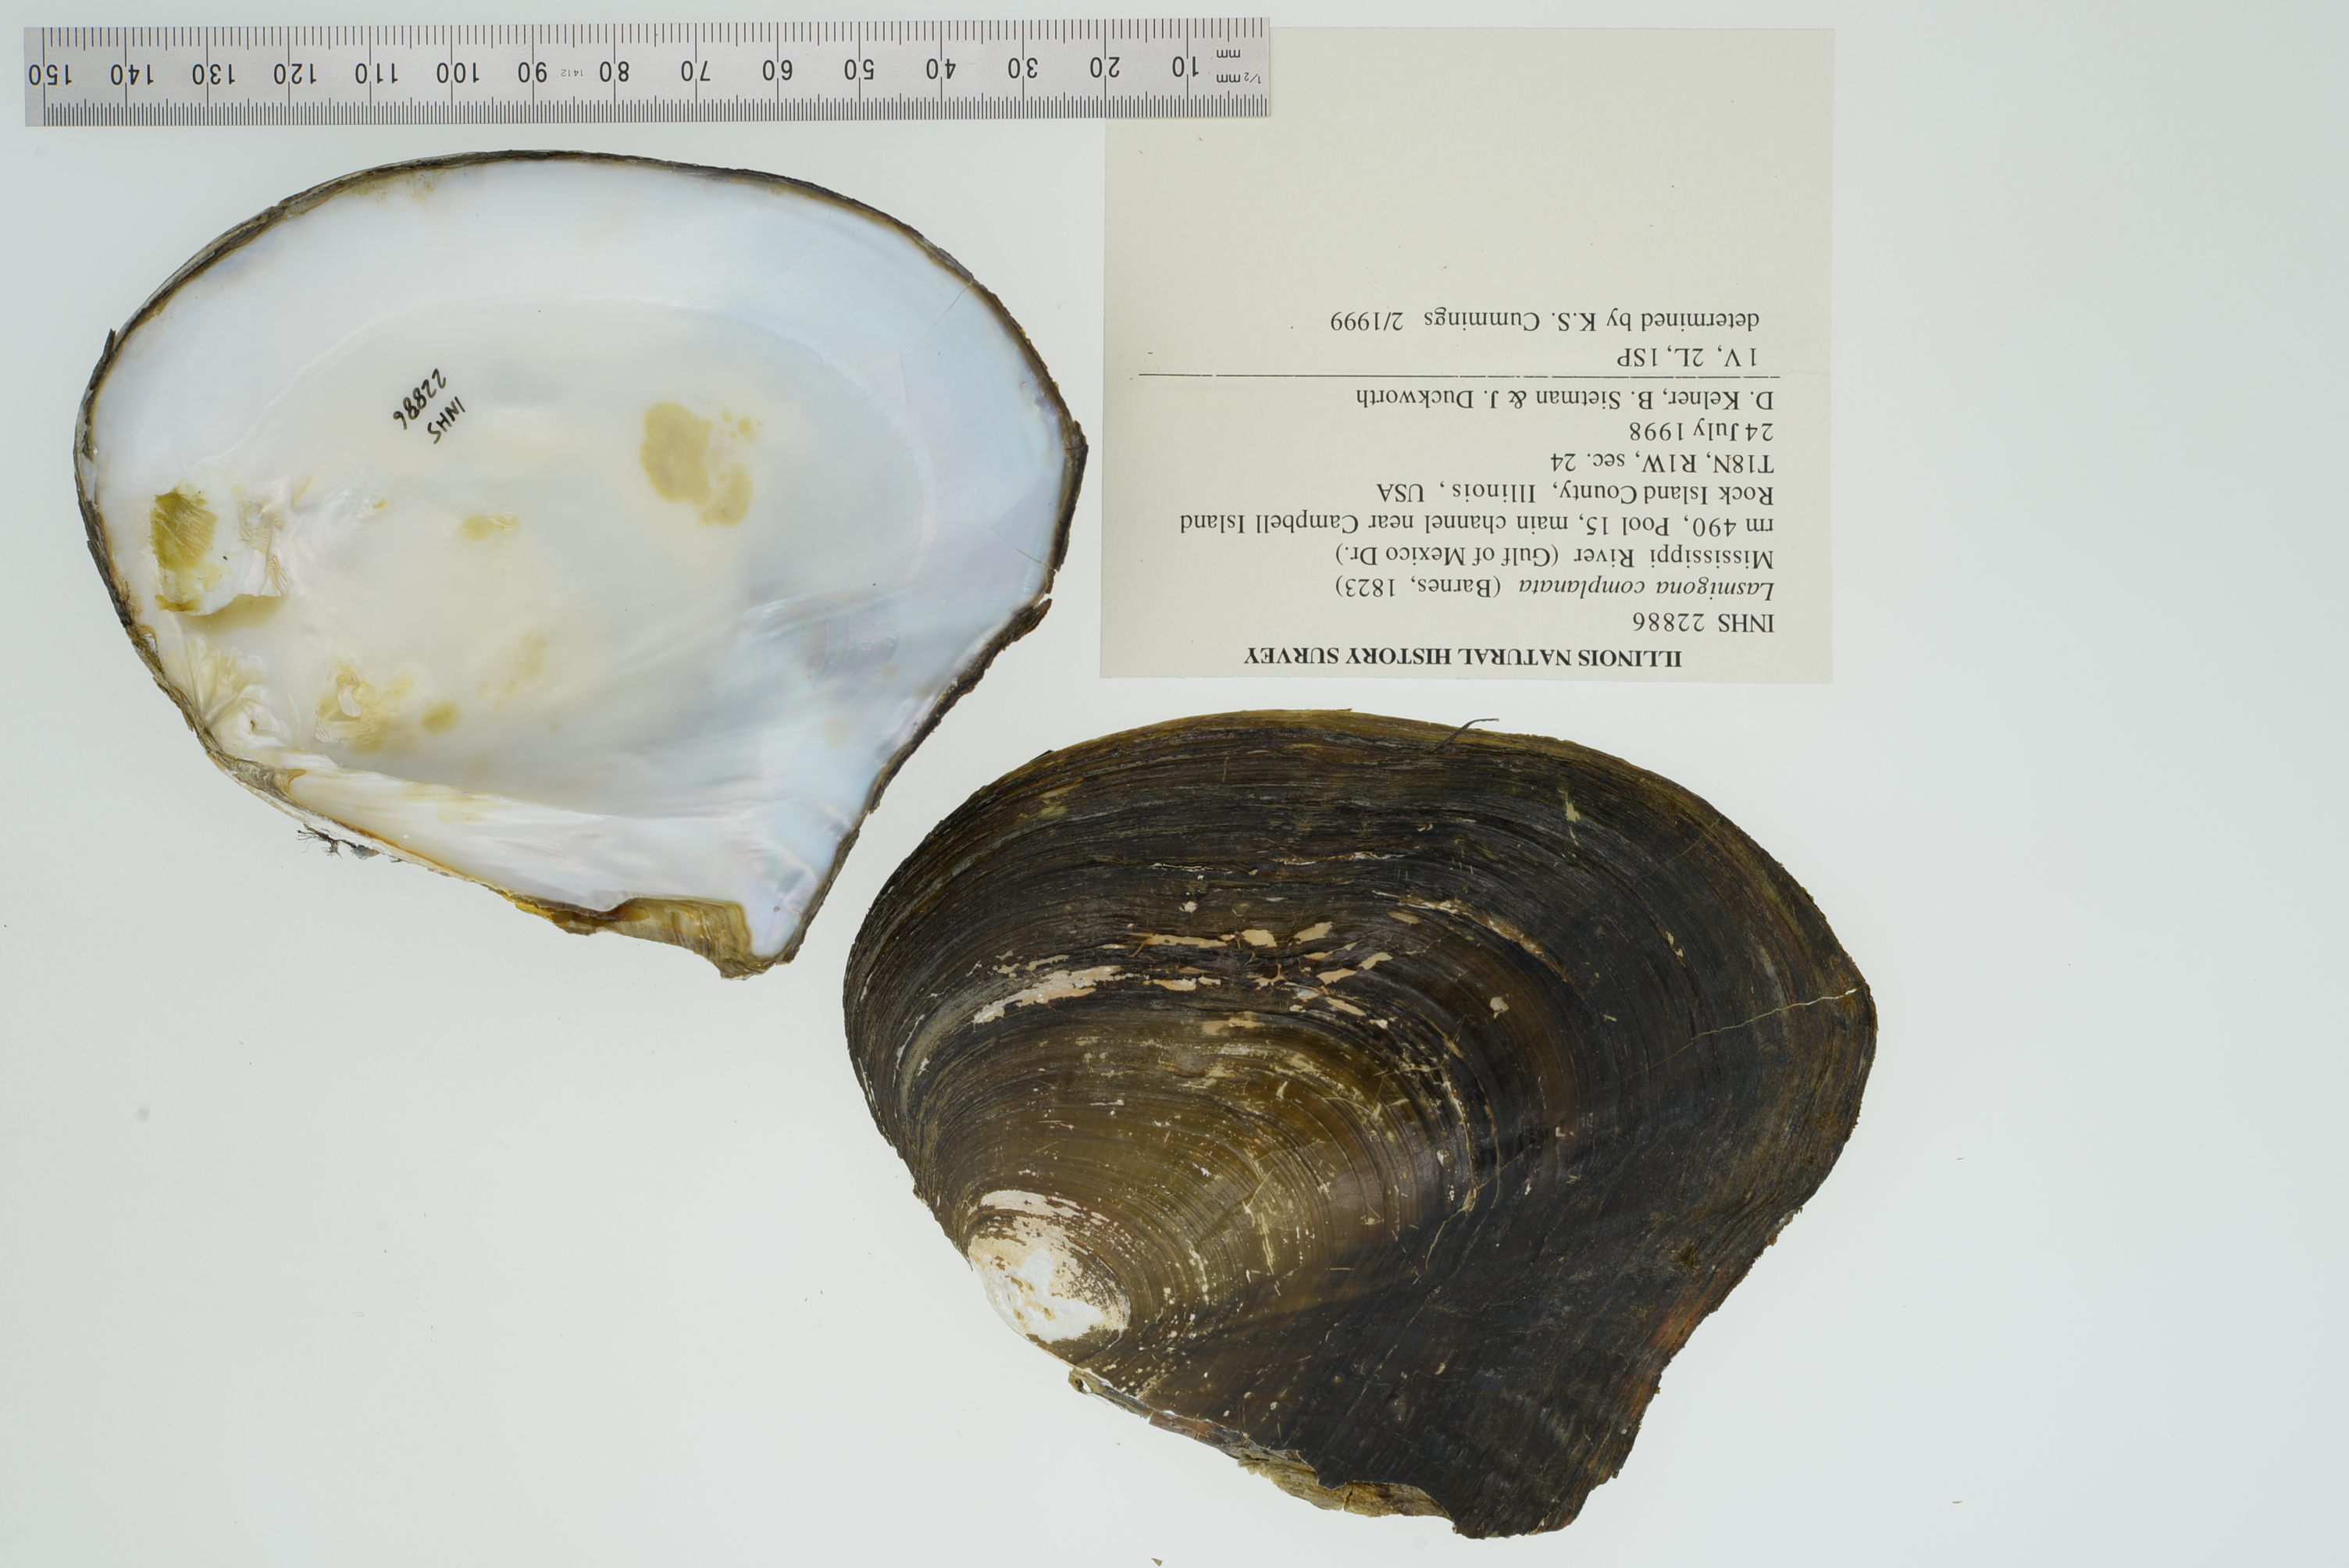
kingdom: Animalia
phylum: Mollusca
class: Bivalvia
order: Unionida
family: Unionidae
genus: Lasmigona
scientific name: Lasmigona complanata
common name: White heelsplitter
